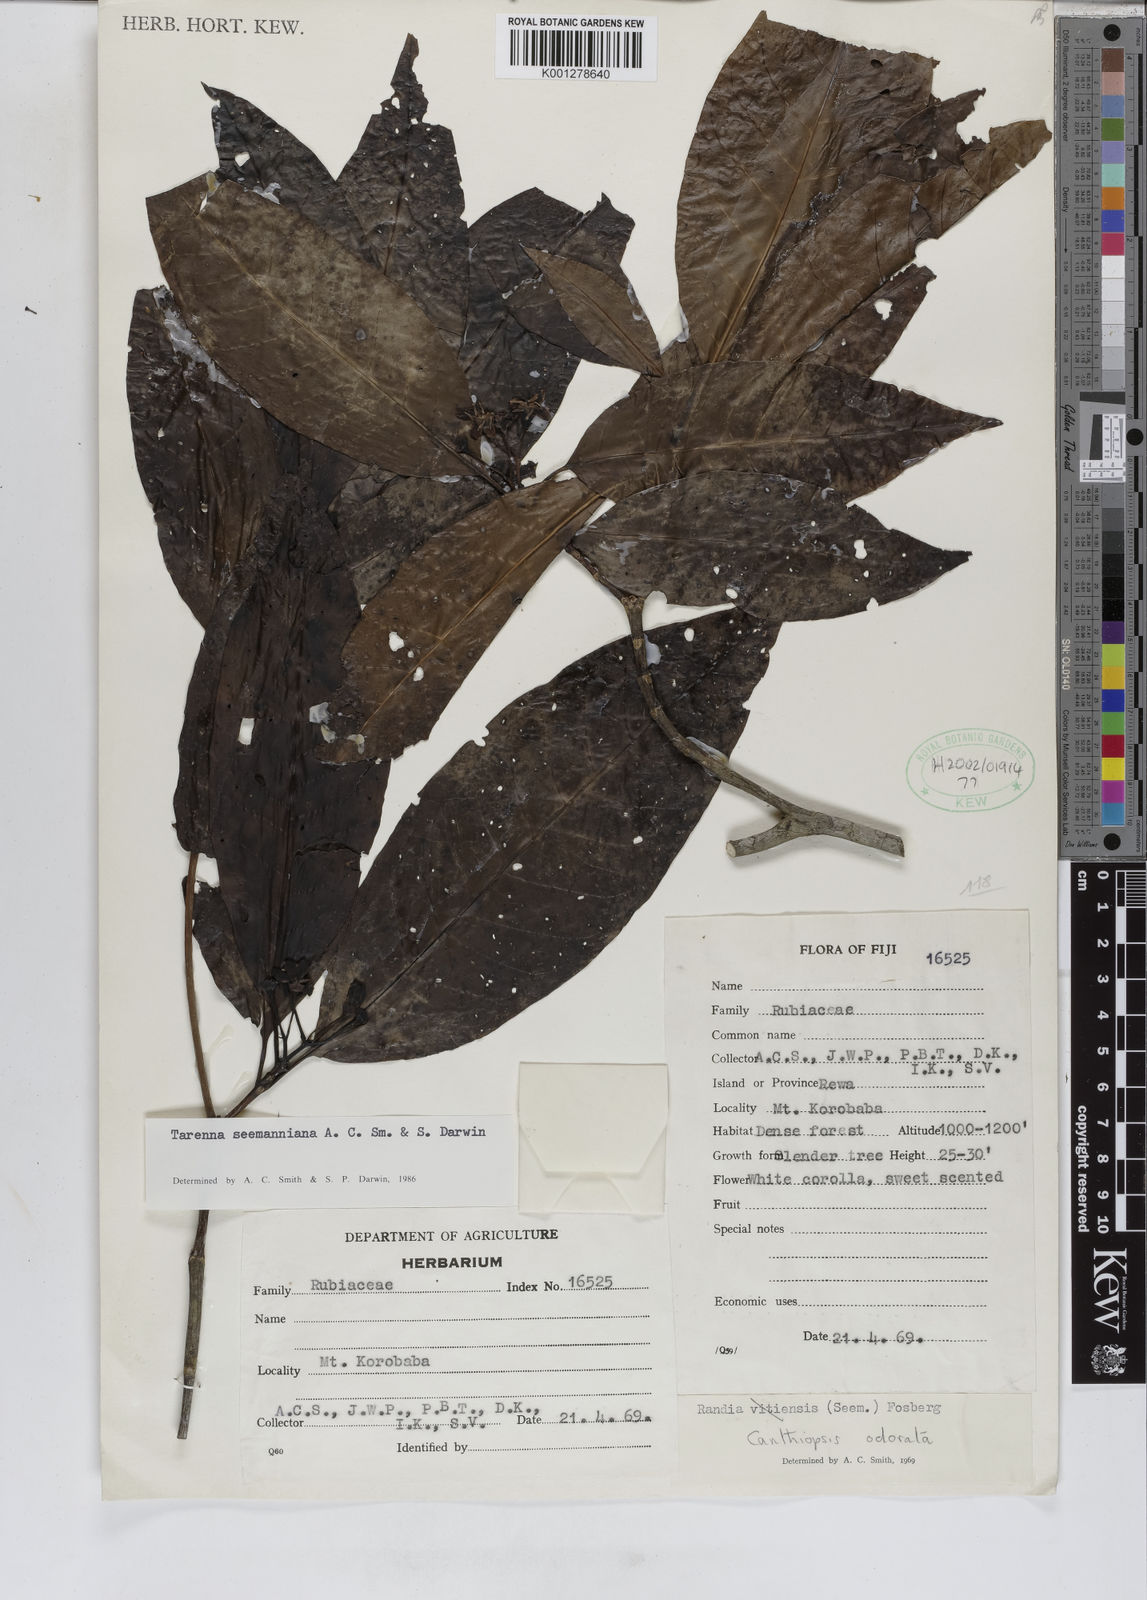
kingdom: Plantae
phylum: Tracheophyta
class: Magnoliopsida
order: Gentianales
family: Rubiaceae
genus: Tarenna
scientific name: Tarenna seemanniana
